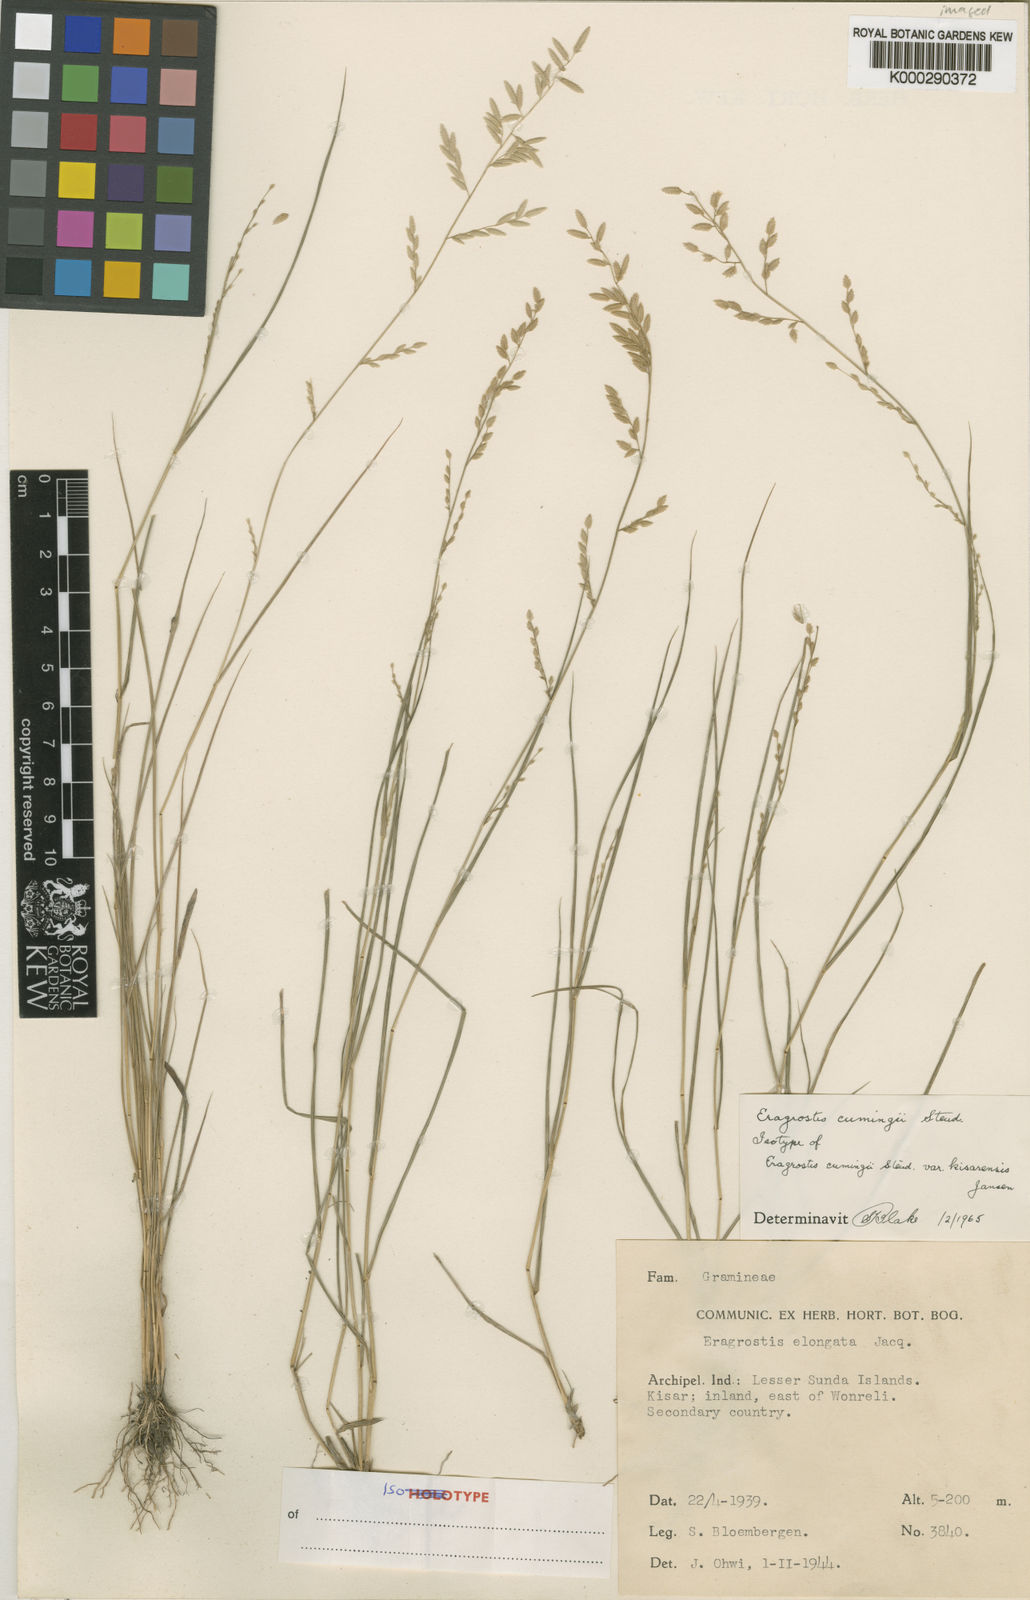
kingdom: Plantae
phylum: Tracheophyta
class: Liliopsida
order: Poales
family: Poaceae
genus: Eragrostis
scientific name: Eragrostis cumingii
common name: Cuming's lovegrass
